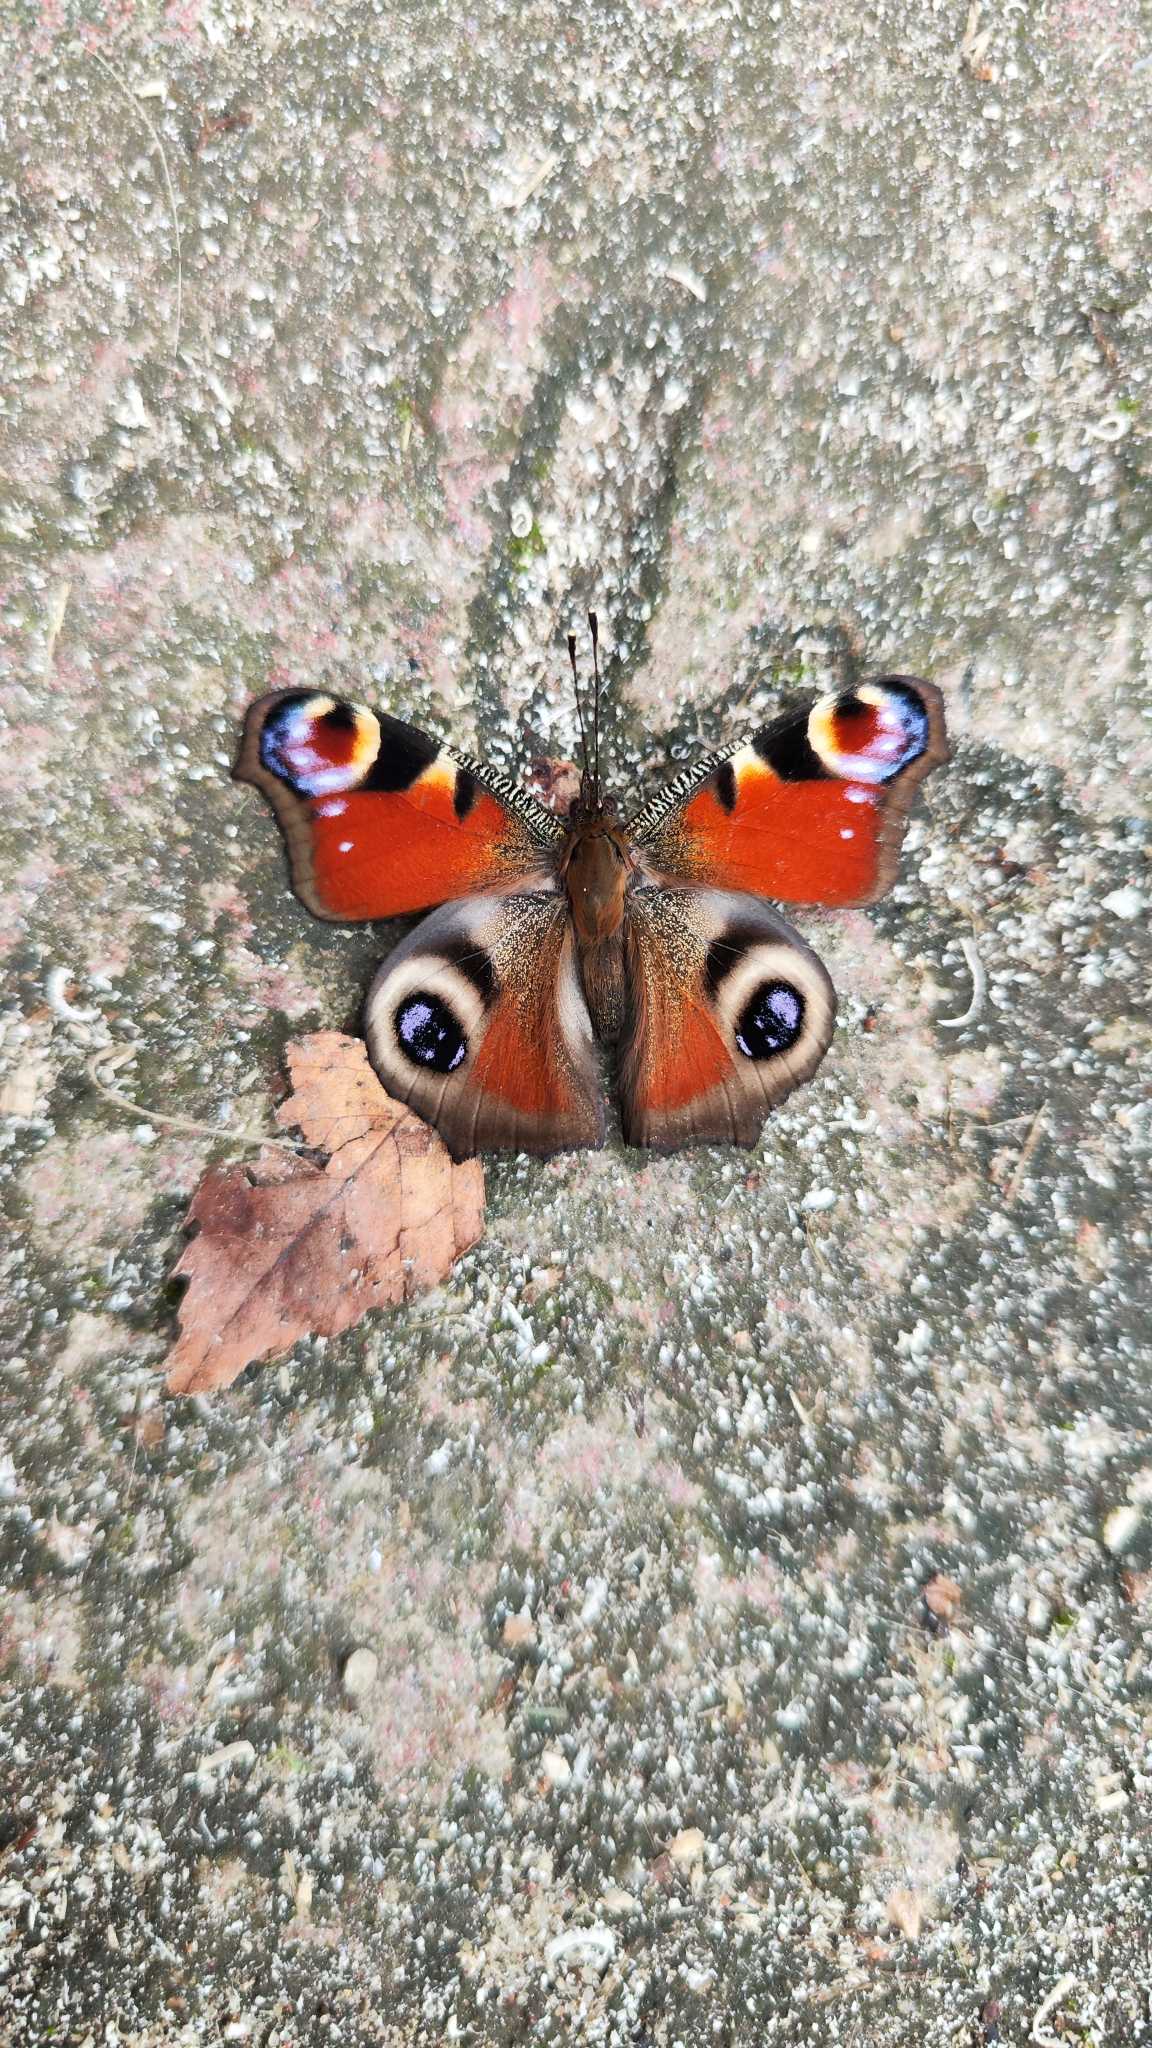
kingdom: Animalia
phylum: Arthropoda
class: Insecta
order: Lepidoptera
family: Nymphalidae
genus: Aglais
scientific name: Aglais io
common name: Dagpåfugleøje
